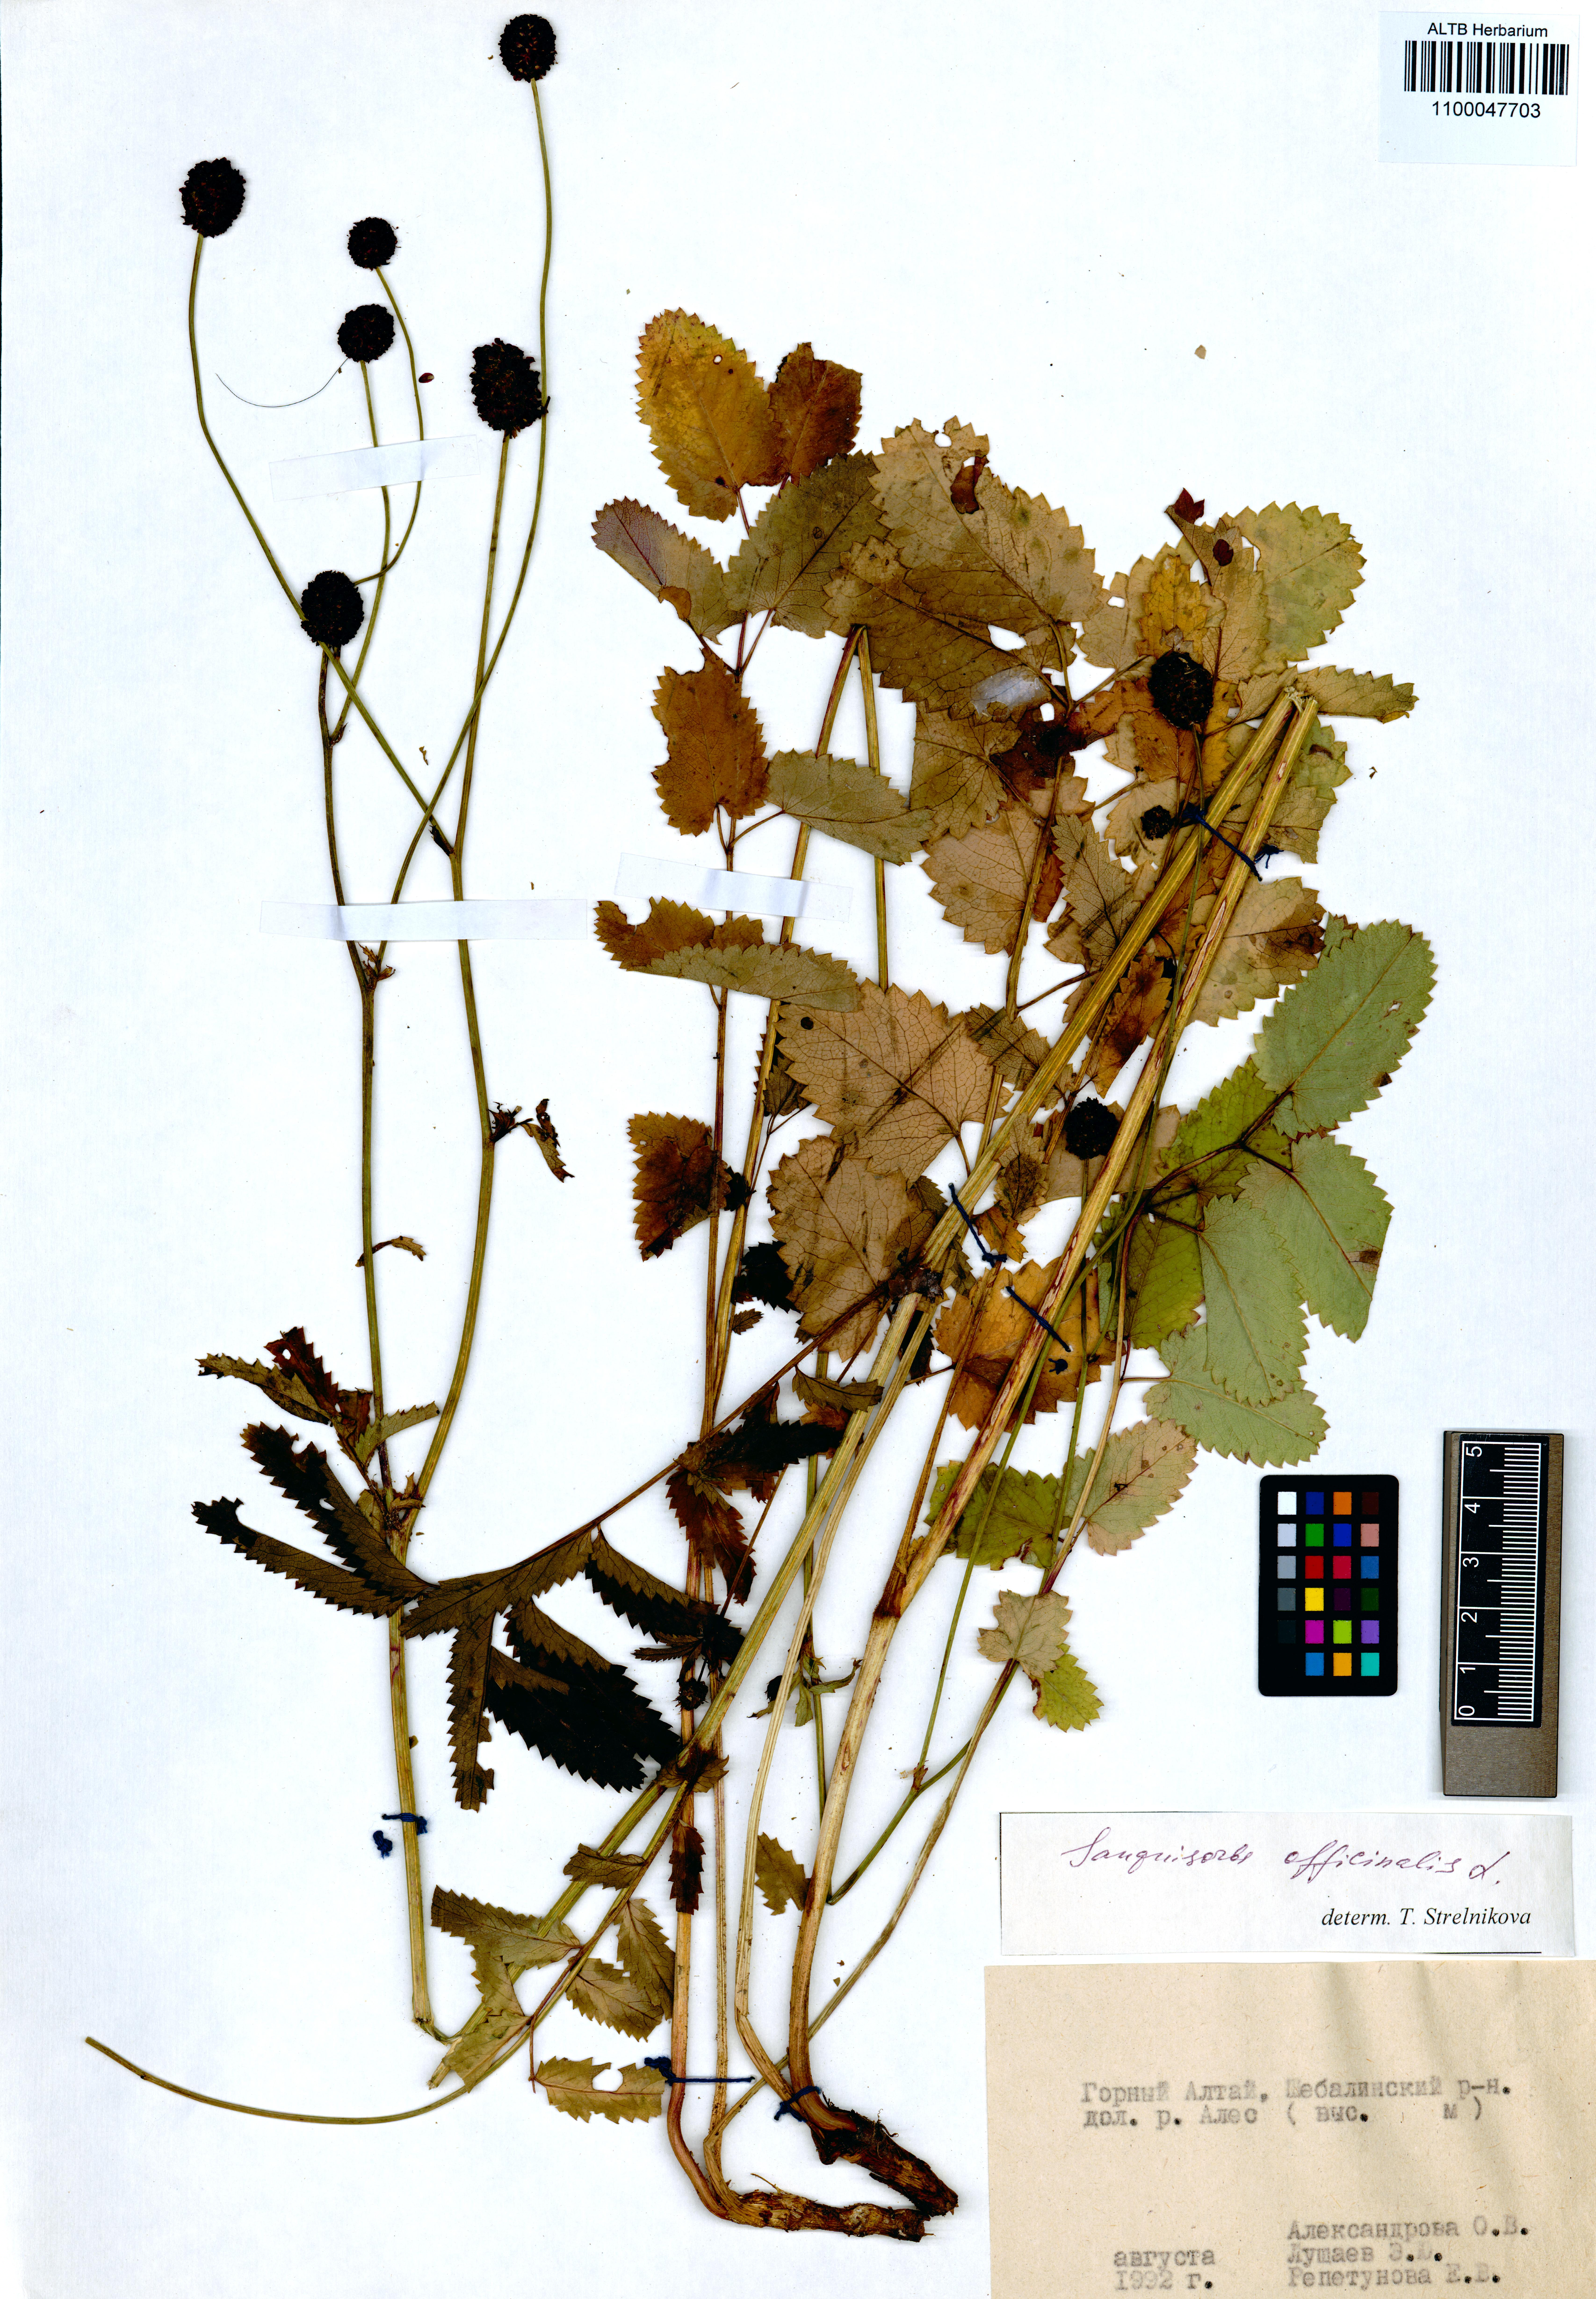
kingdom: Plantae
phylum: Tracheophyta
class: Magnoliopsida
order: Rosales
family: Rosaceae
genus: Sanguisorba
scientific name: Sanguisorba officinalis
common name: Great burnet
